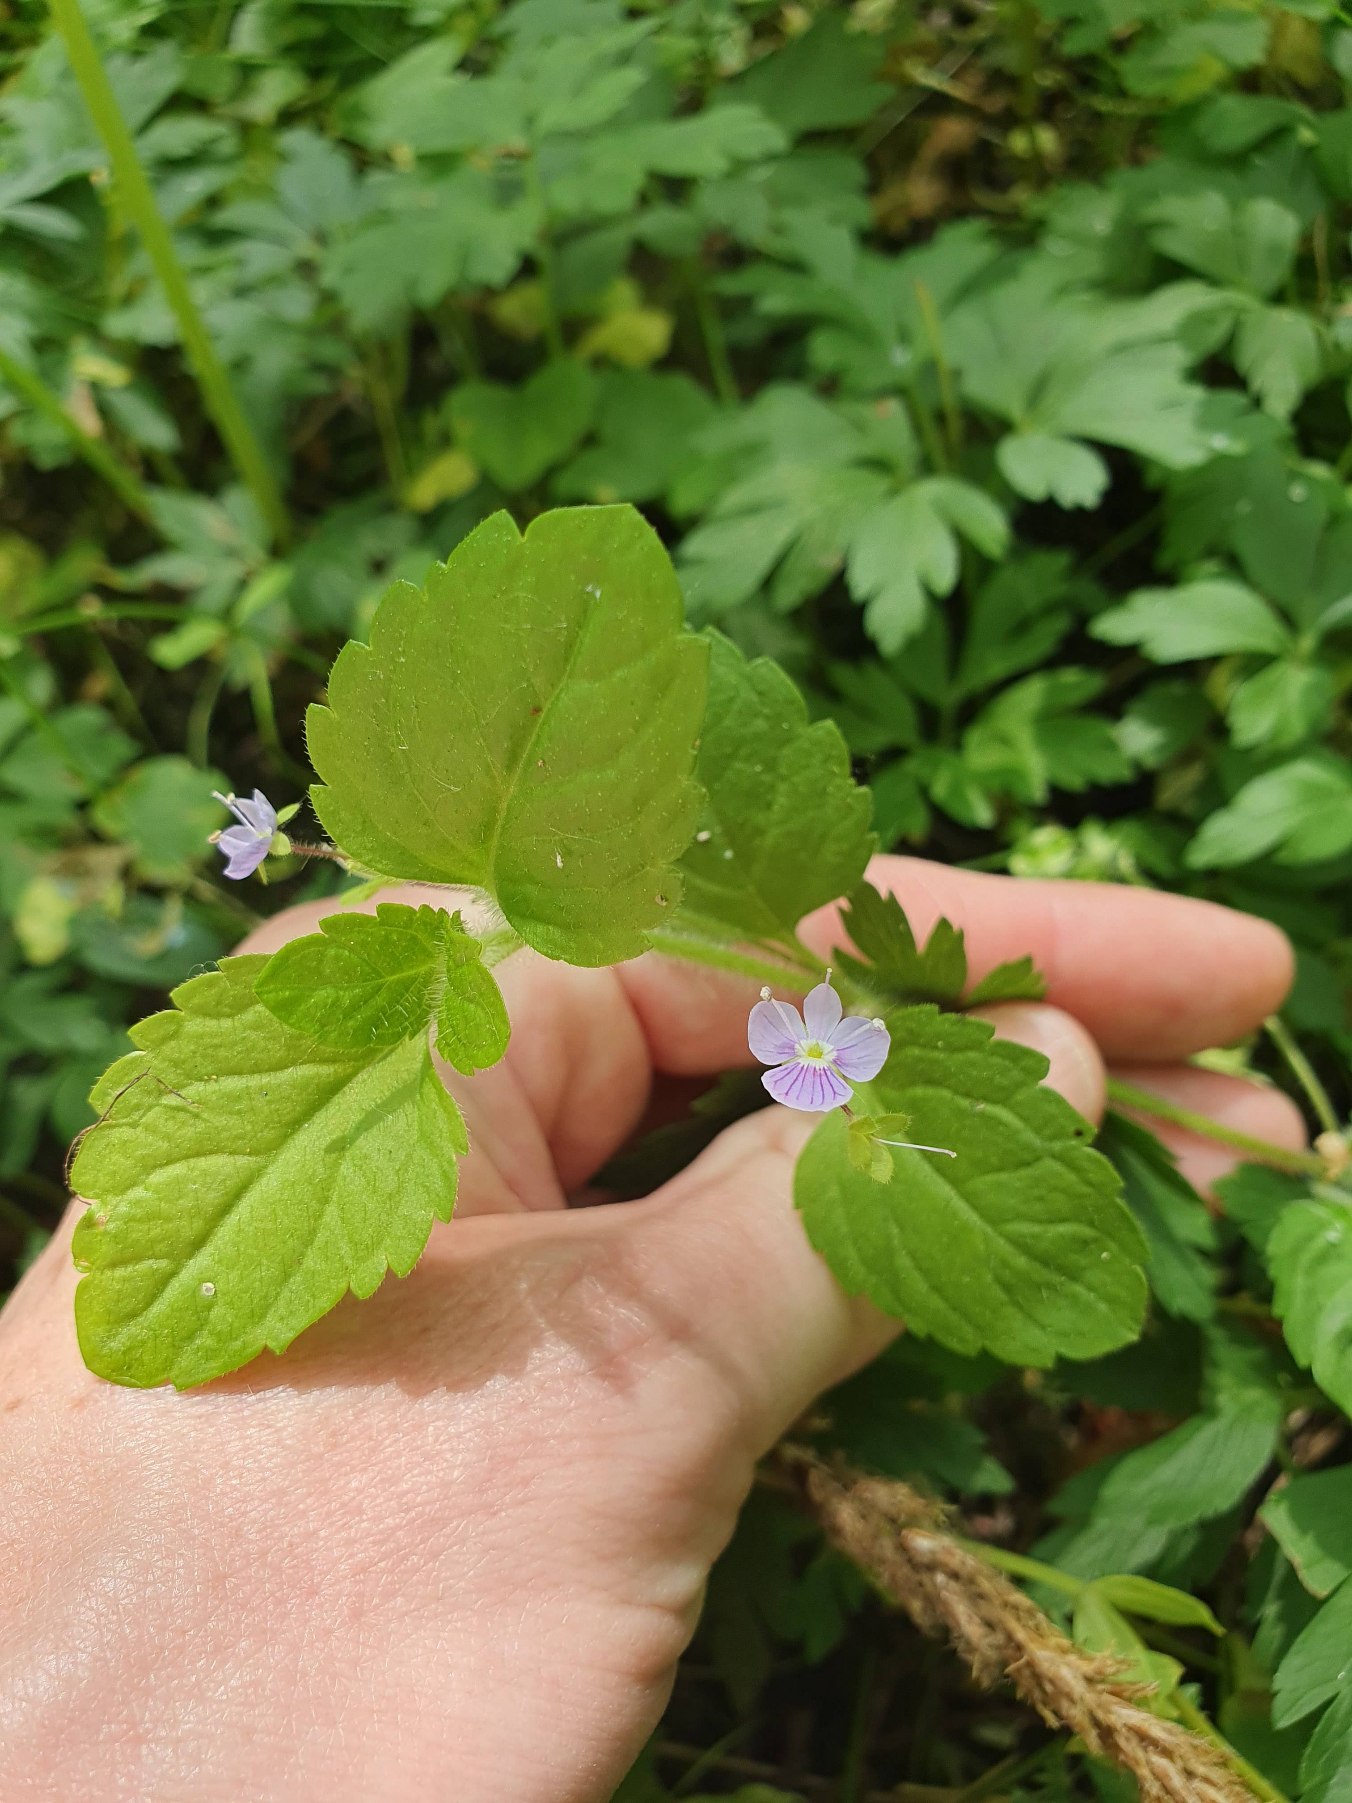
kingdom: Plantae
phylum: Tracheophyta
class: Magnoliopsida
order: Lamiales
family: Plantaginaceae
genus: Veronica
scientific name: Veronica montana
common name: Bjerg-ærenpris
